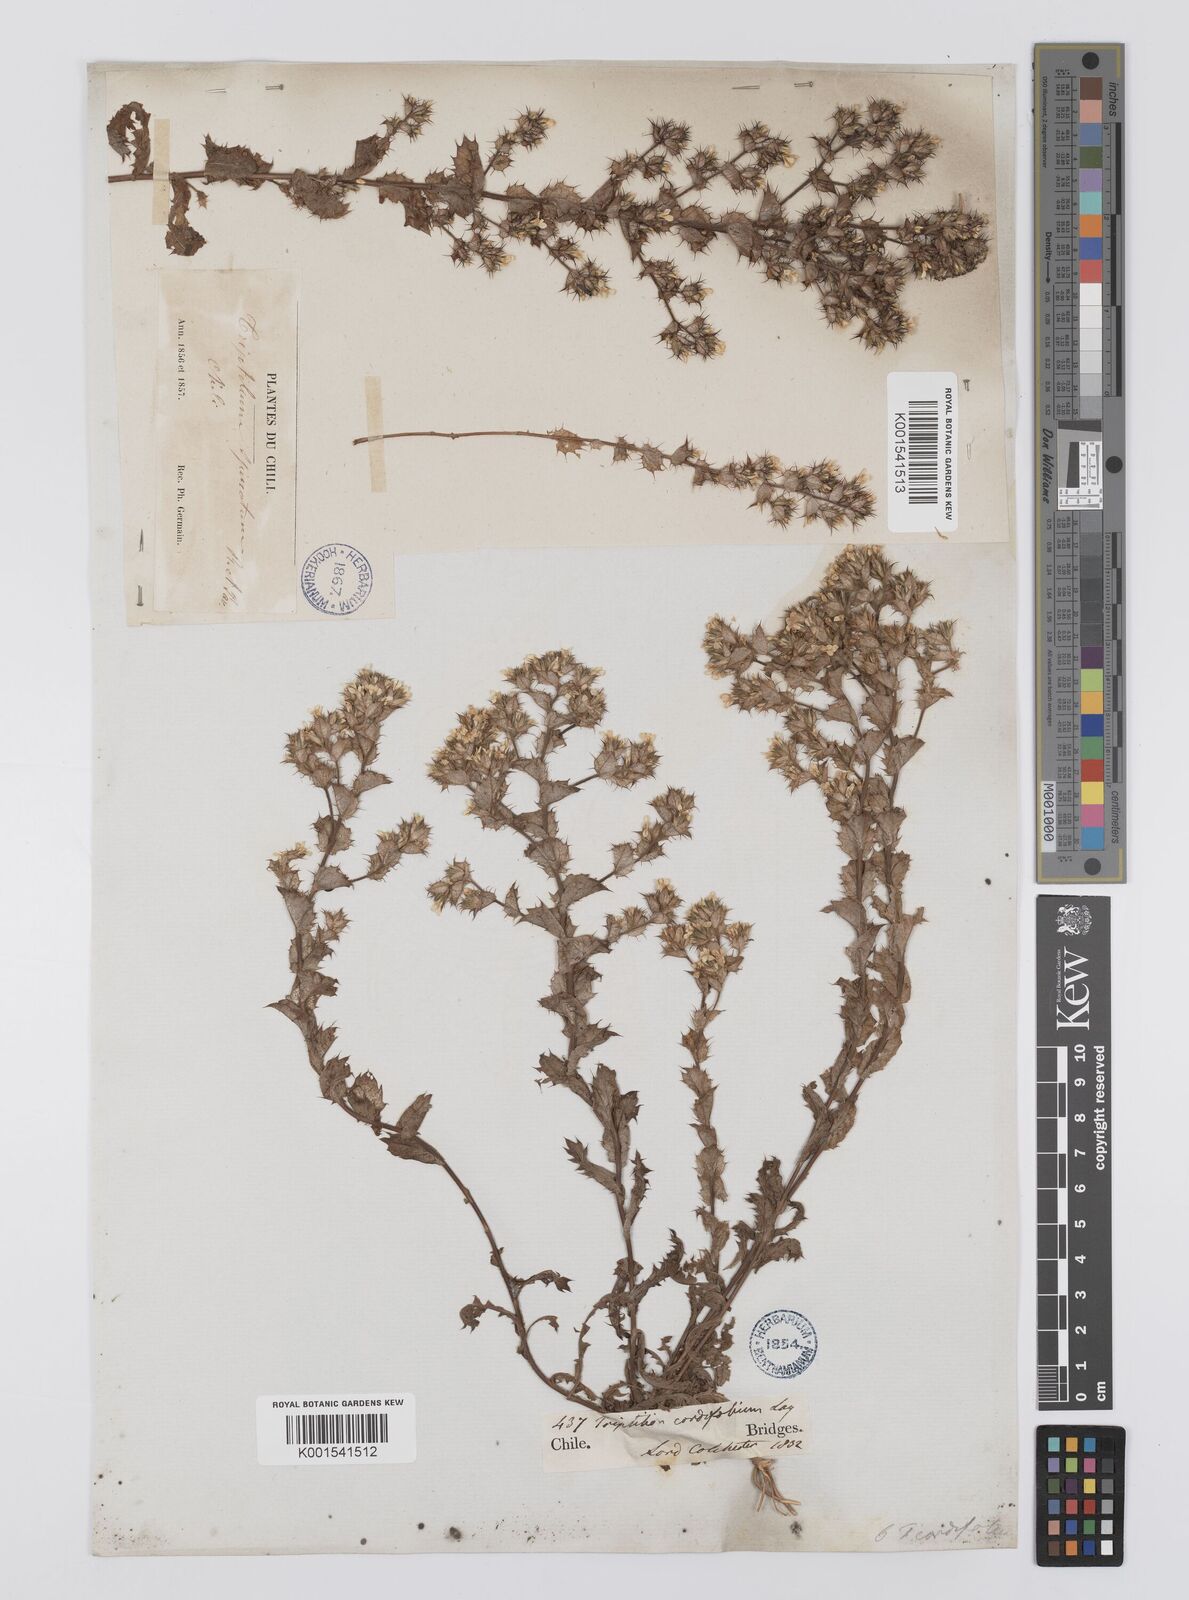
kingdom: Plantae
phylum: Tracheophyta
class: Magnoliopsida
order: Asterales
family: Asteraceae
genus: Triptilion
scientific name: Triptilion cordifolium
